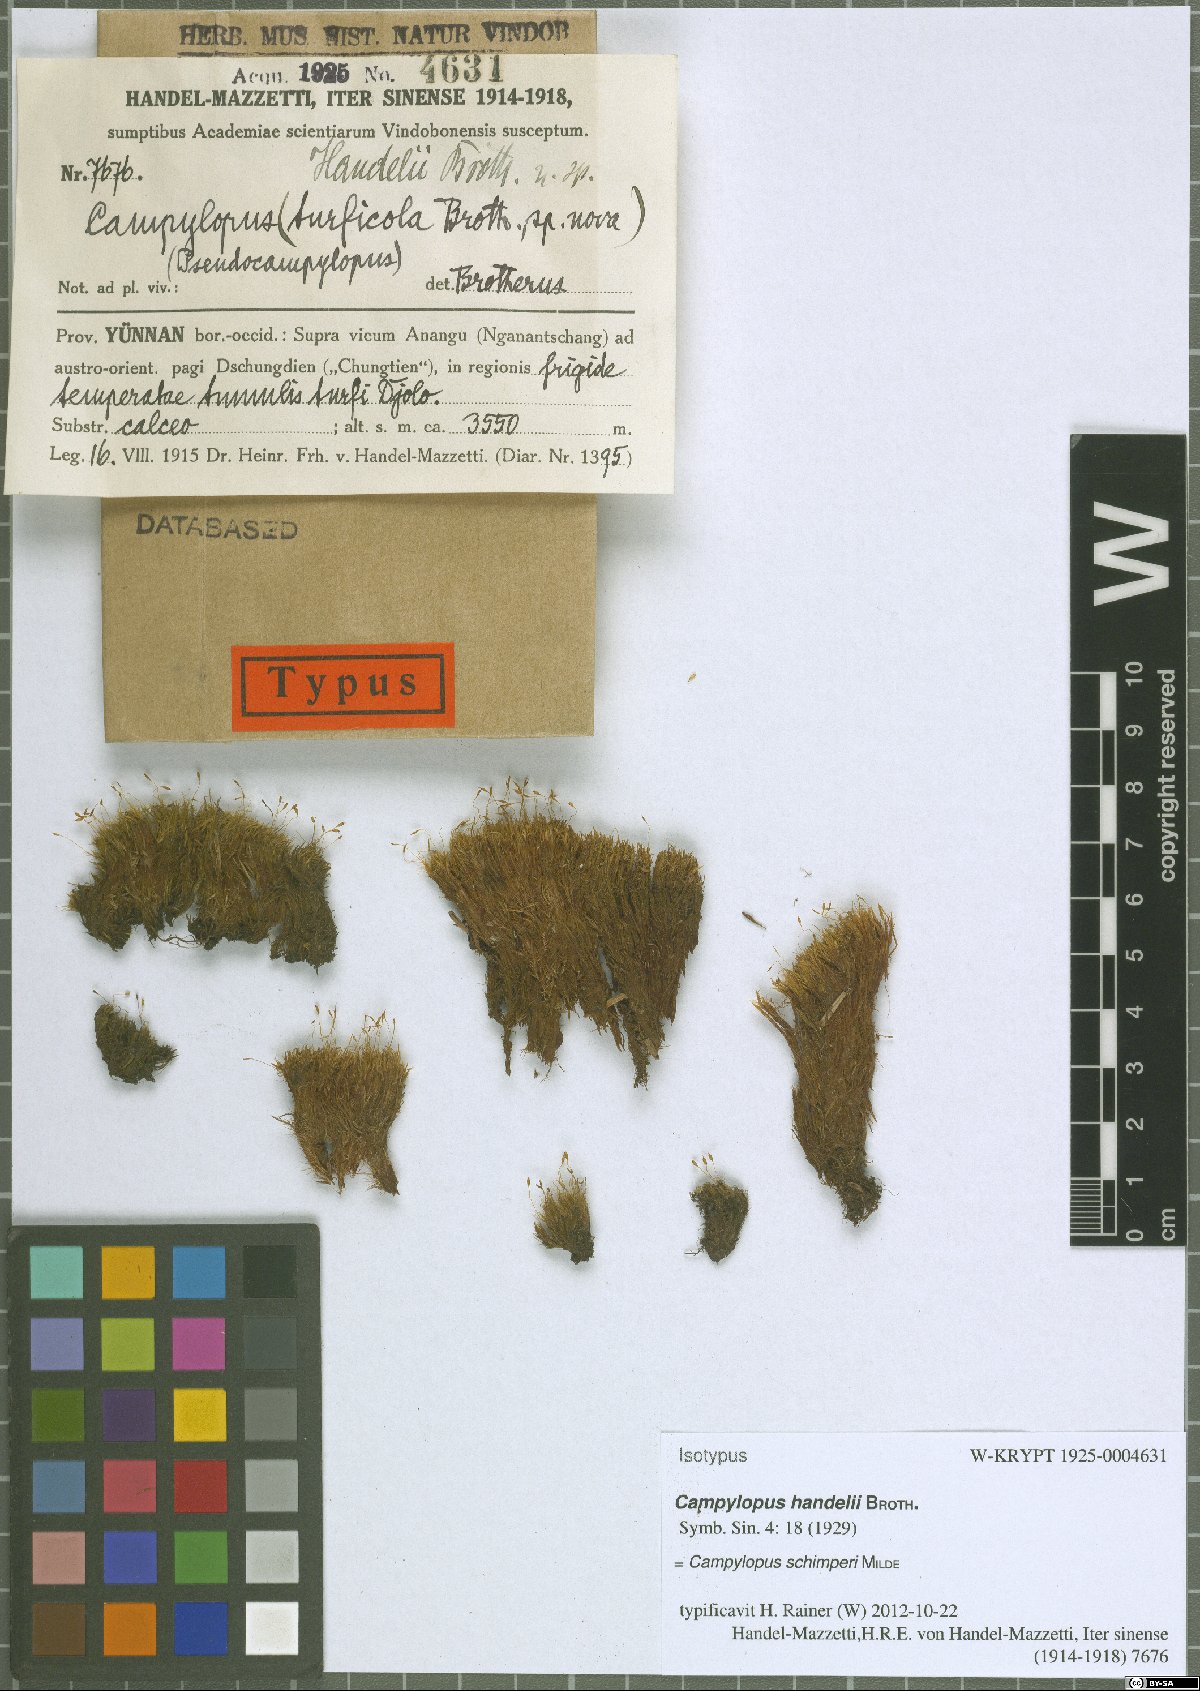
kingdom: Plantae
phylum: Bryophyta
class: Bryopsida
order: Dicranales
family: Leucobryaceae
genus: Campylopus
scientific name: Campylopus schimperi
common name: Schimper's swan-neck moss
